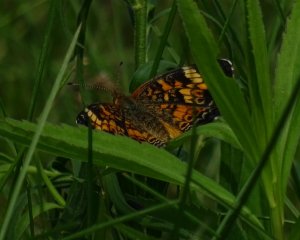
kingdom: Animalia
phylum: Arthropoda
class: Insecta
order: Lepidoptera
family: Nymphalidae
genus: Phyciodes
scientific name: Phyciodes tharos
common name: Pearl Crescent
